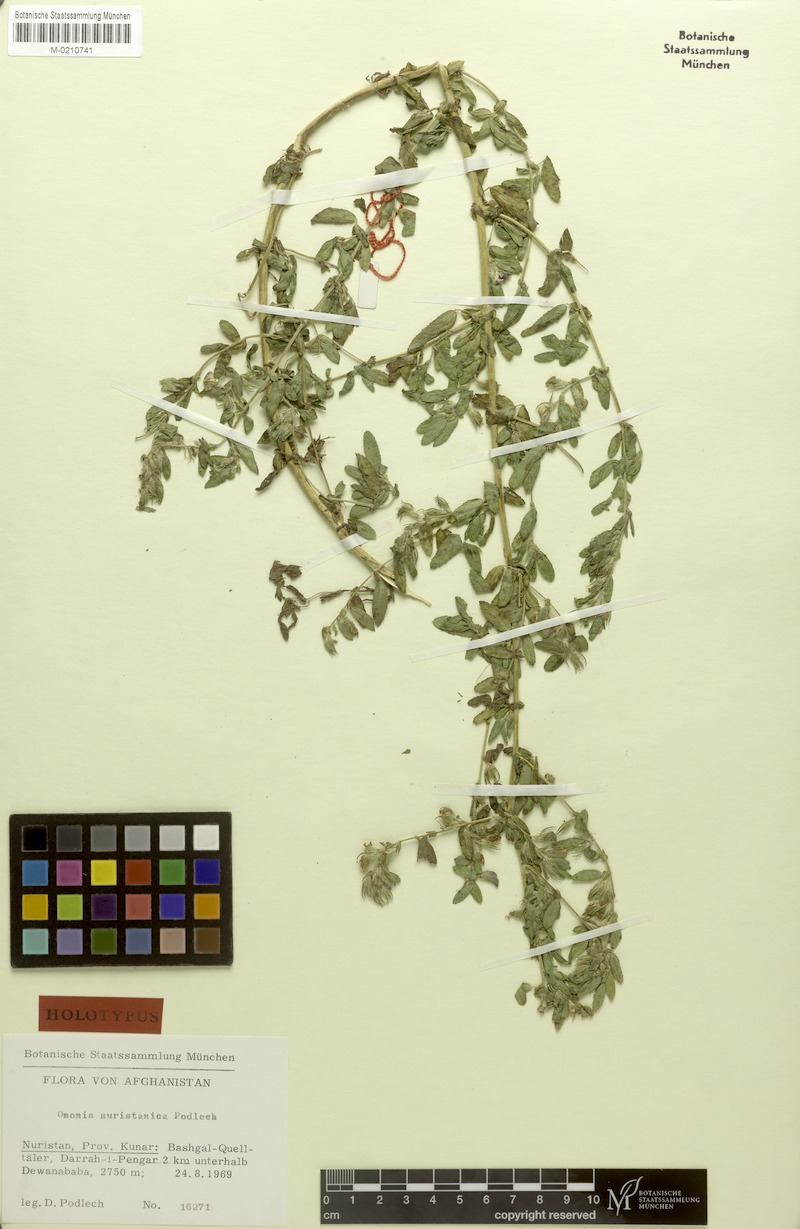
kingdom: Plantae
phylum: Tracheophyta
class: Magnoliopsida
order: Fabales
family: Fabaceae
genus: Ononis
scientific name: Ononis nuristanica
